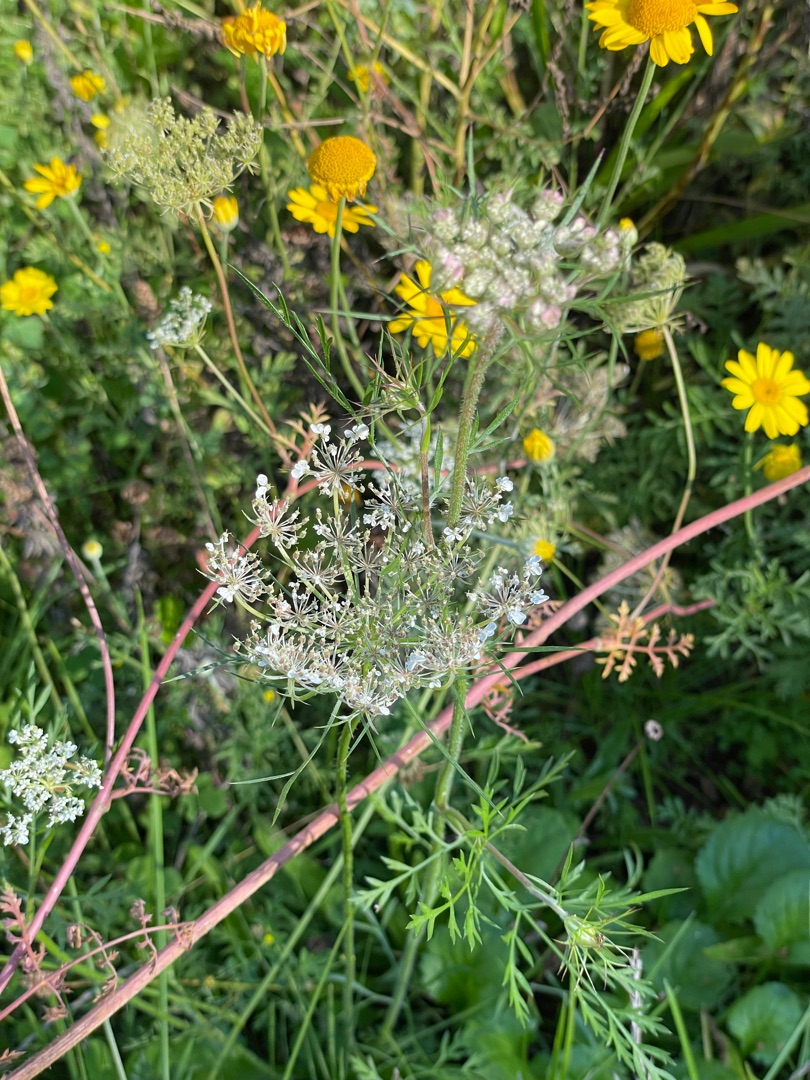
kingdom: Plantae
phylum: Tracheophyta
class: Magnoliopsida
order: Apiales
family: Apiaceae
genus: Daucus
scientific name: Daucus carota
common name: Gulerod
